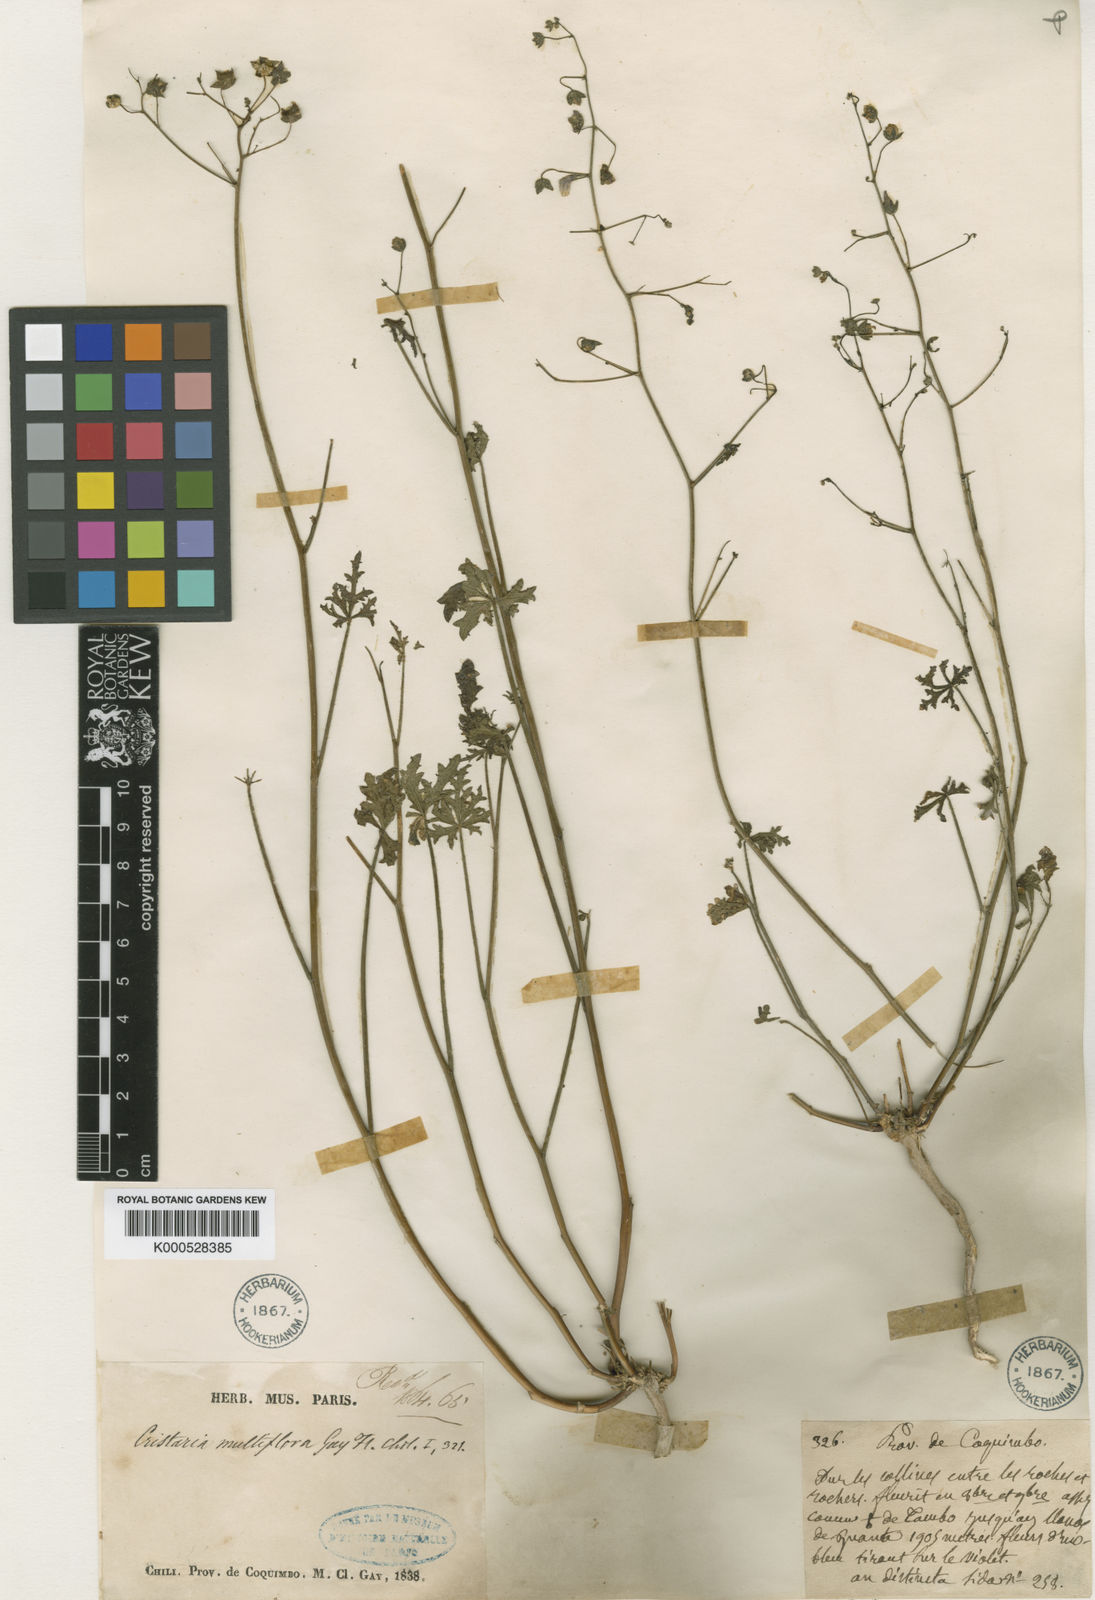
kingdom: Plantae
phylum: Tracheophyta
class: Magnoliopsida
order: Malvales
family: Malvaceae
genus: Cristaria
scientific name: Cristaria multiflora
